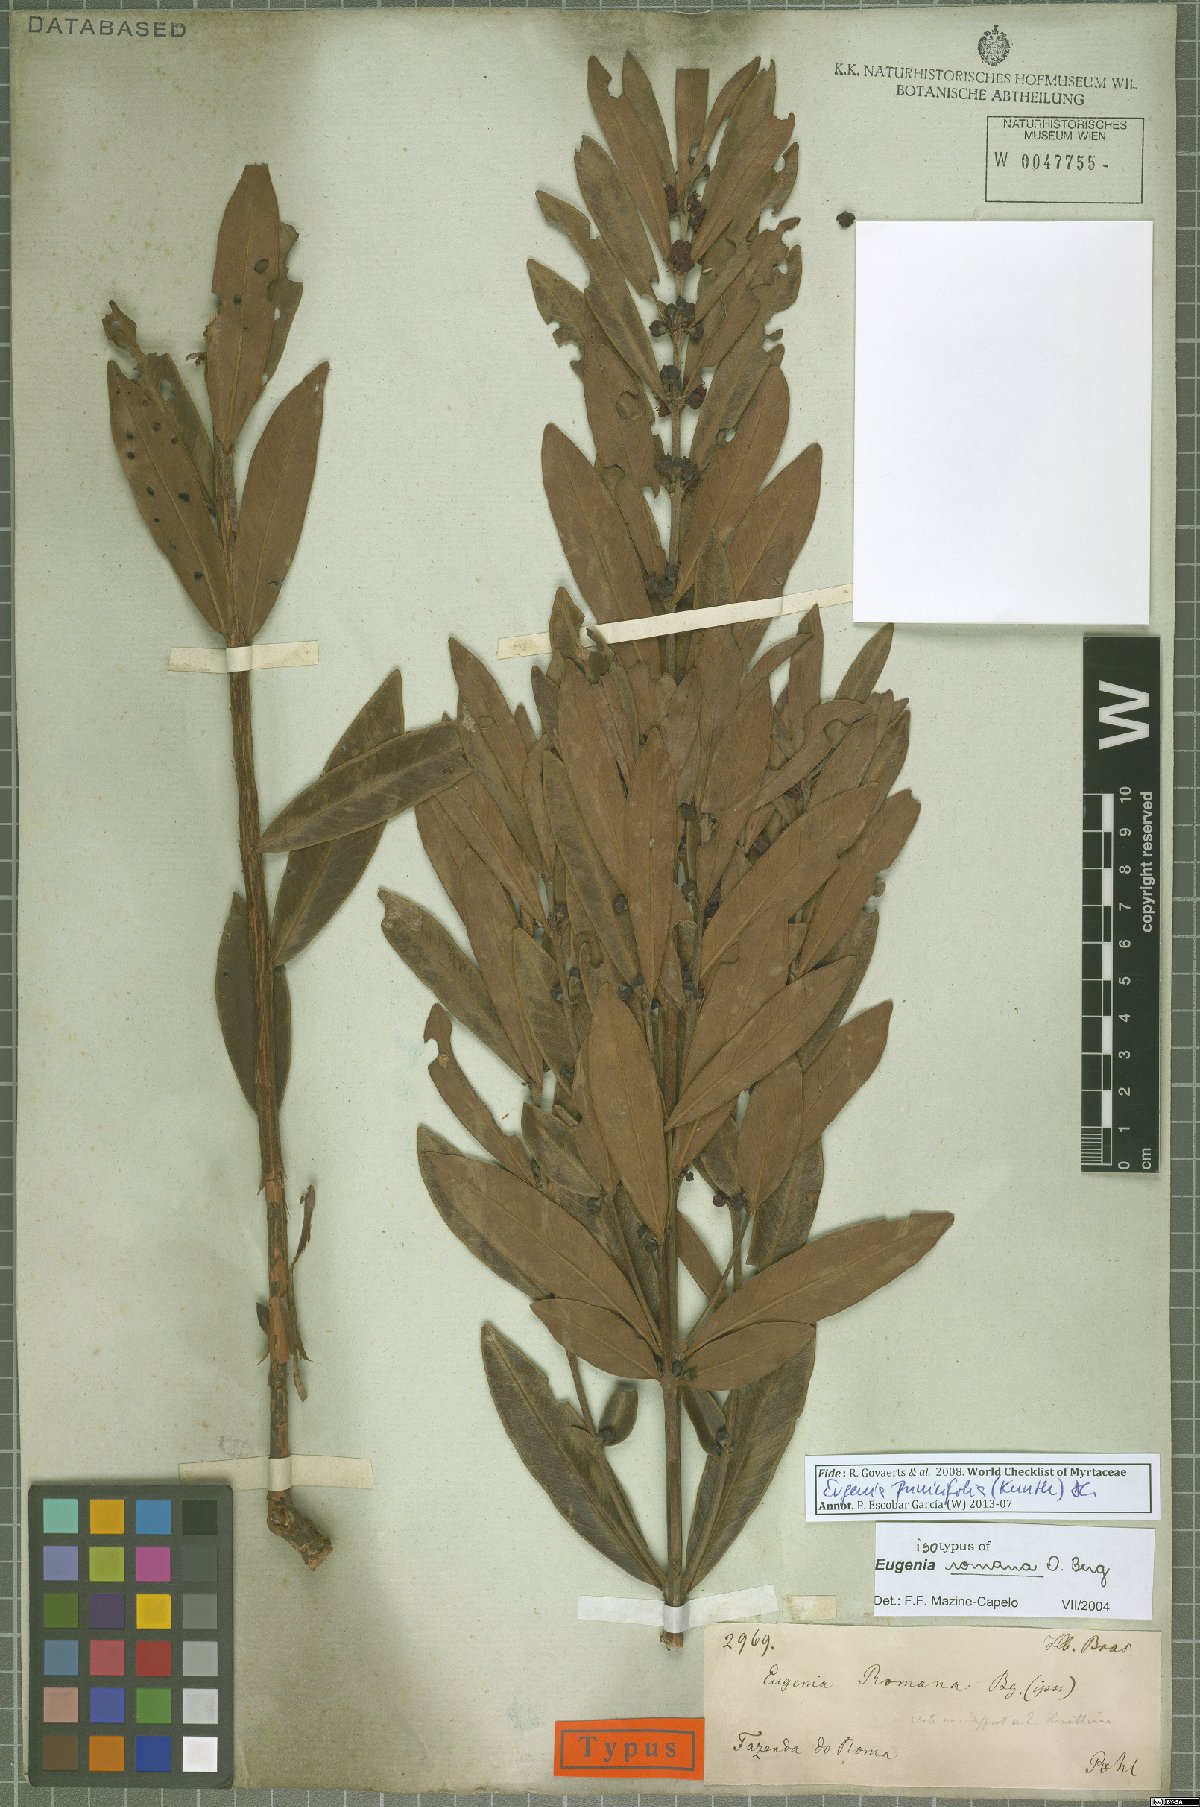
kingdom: Plantae
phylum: Tracheophyta
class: Magnoliopsida
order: Myrtales
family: Myrtaceae
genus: Eugenia
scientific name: Eugenia punicifolia
